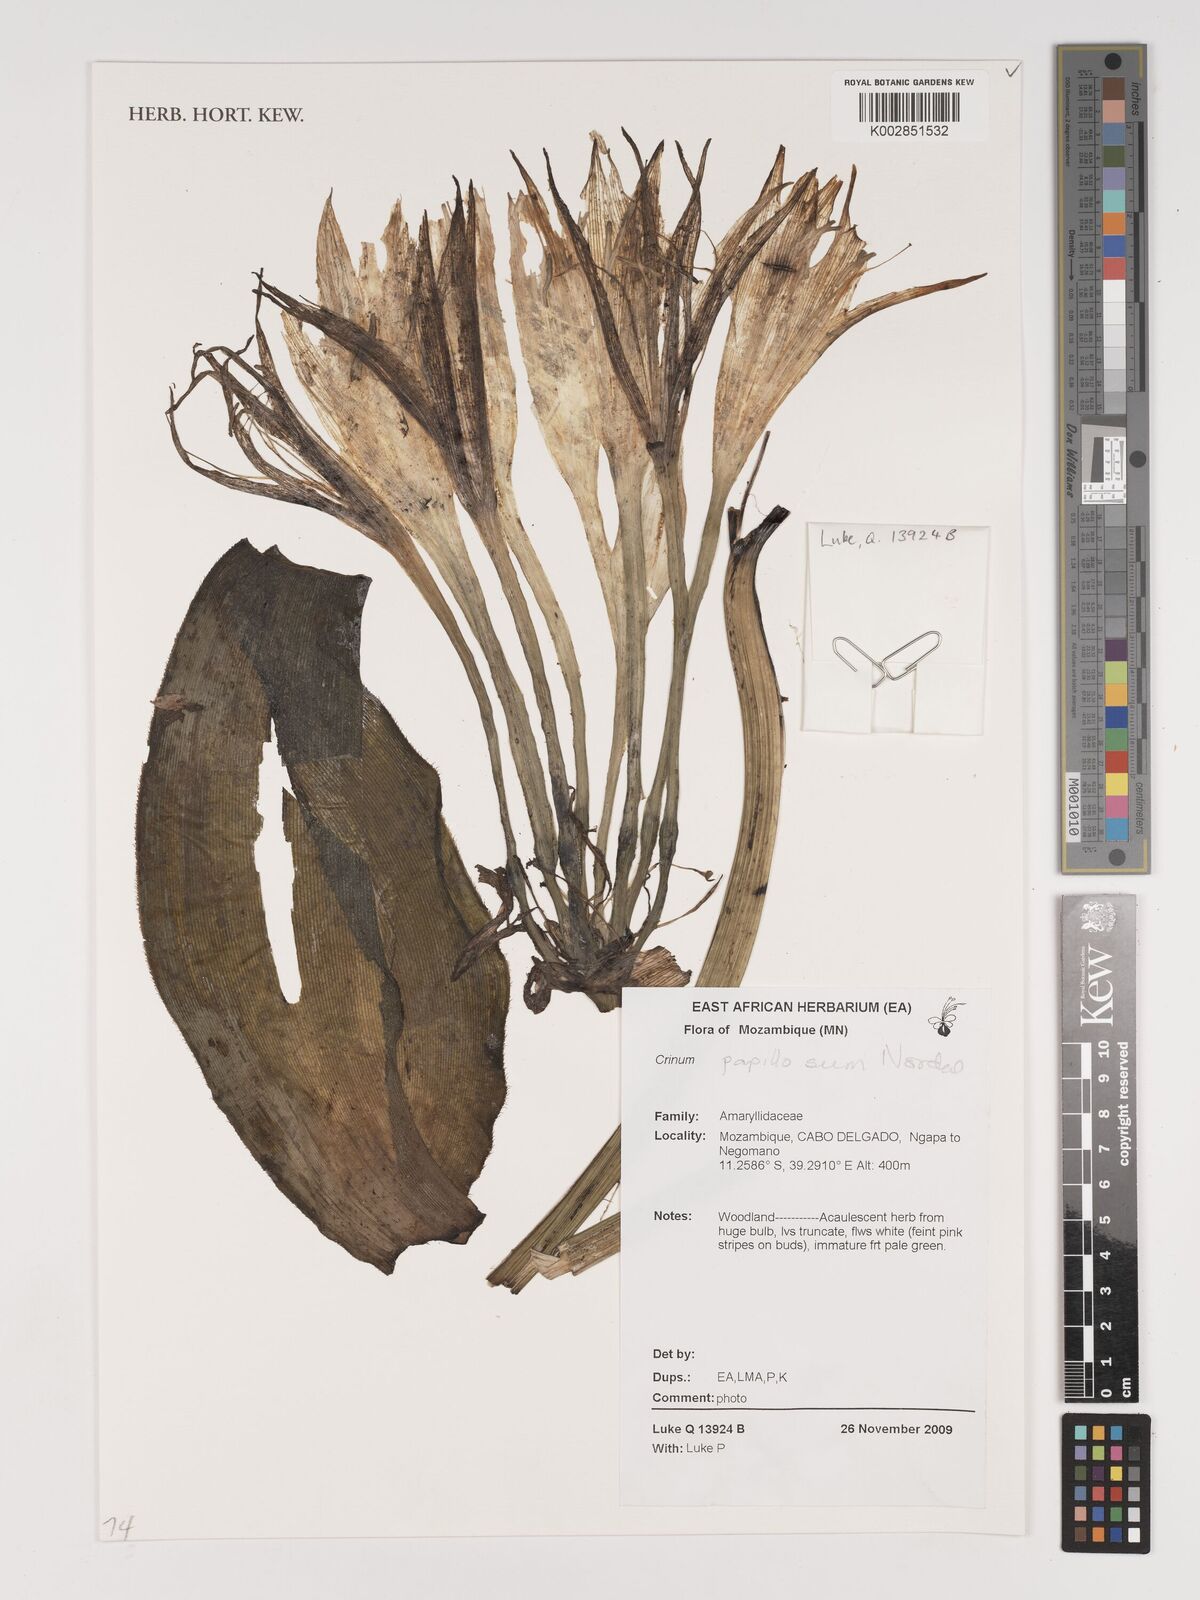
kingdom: Plantae
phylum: Tracheophyta
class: Liliopsida
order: Asparagales
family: Amaryllidaceae
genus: Crinum
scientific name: Crinum papillosum
